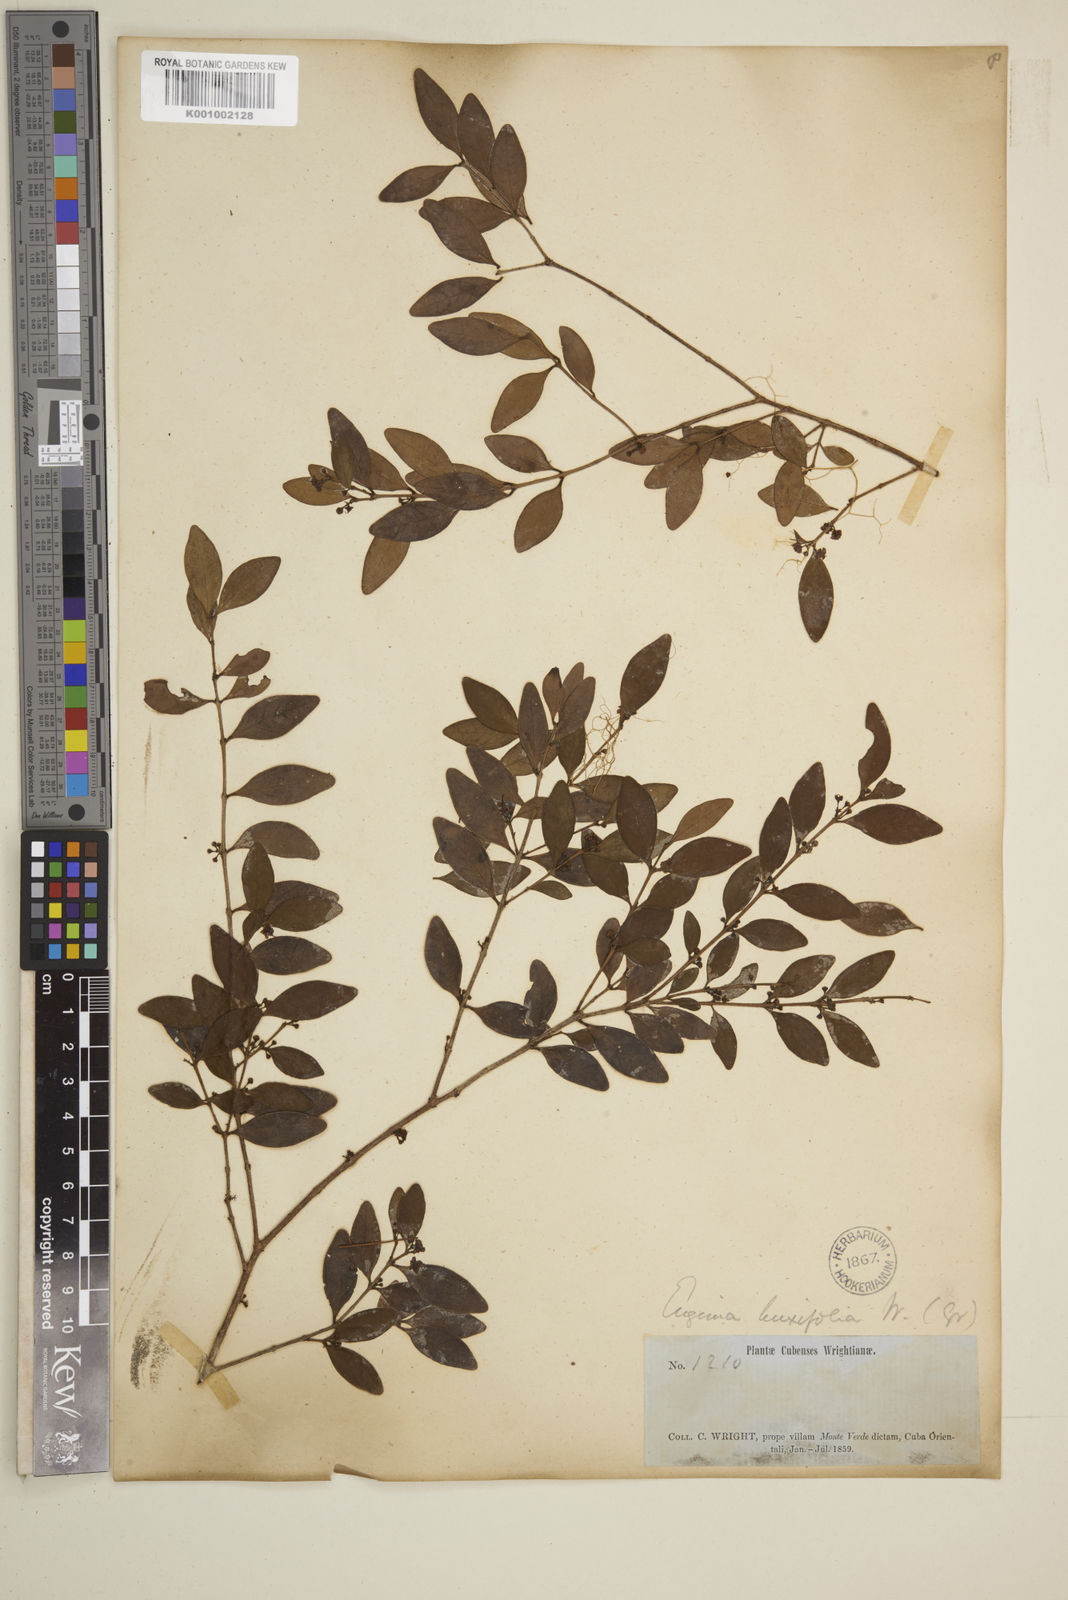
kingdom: Plantae
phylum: Tracheophyta
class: Magnoliopsida
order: Myrtales
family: Myrtaceae
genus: Eugenia
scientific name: Eugenia monticola
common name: Birds berry
